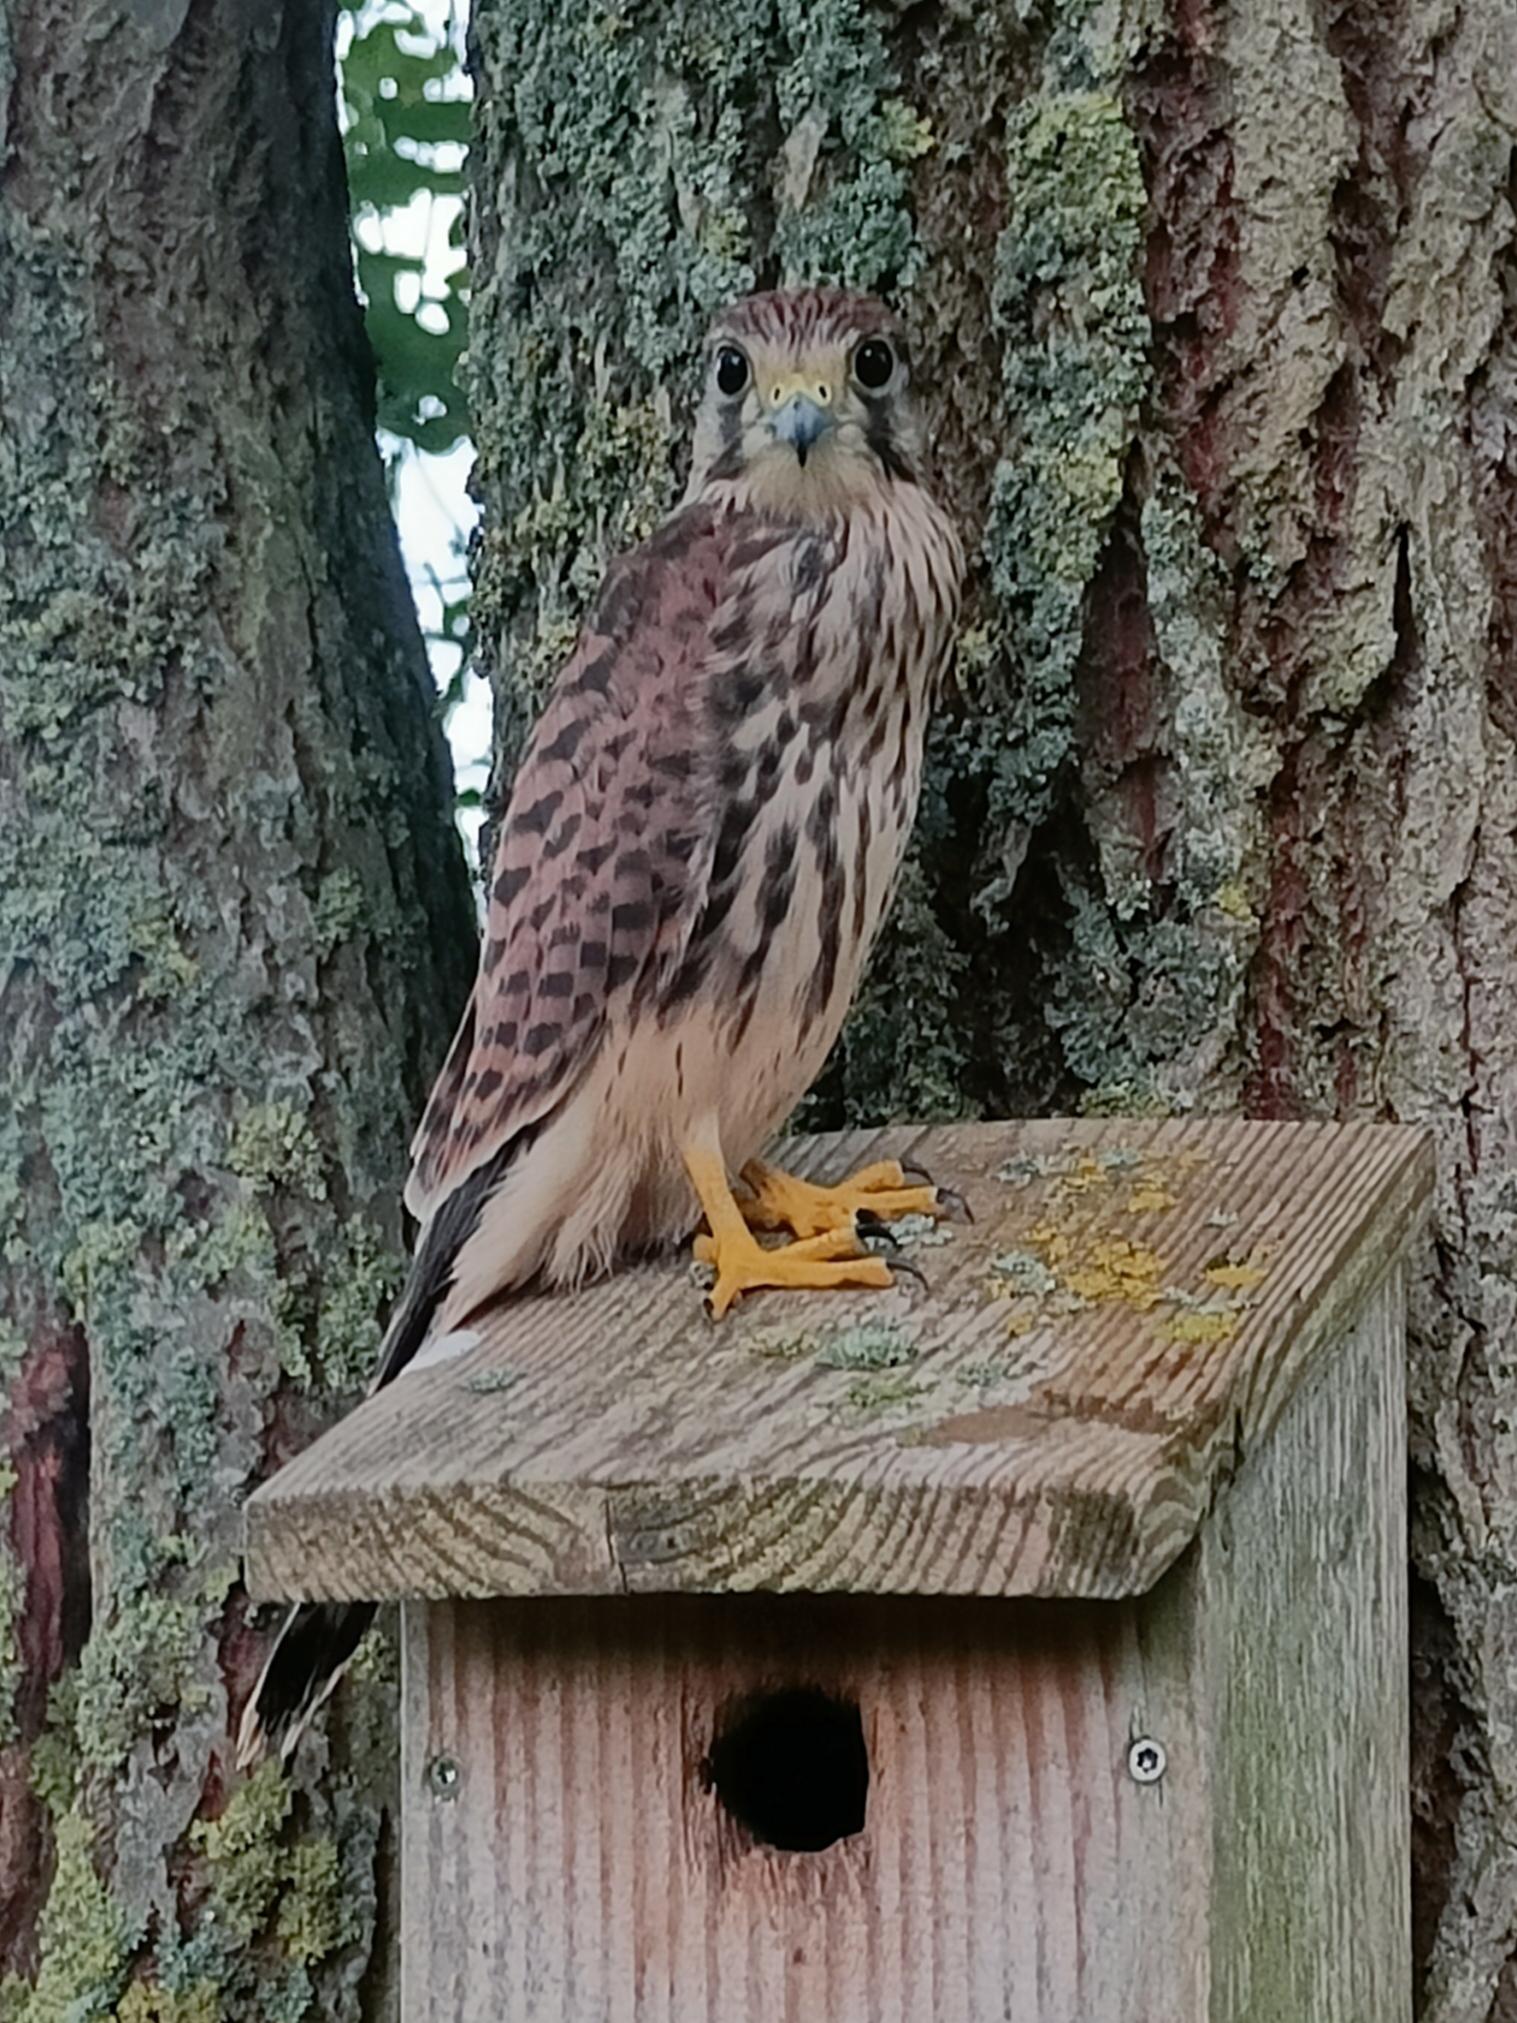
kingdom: Animalia
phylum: Chordata
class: Aves
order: Falconiformes
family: Falconidae
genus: Falco
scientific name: Falco tinnunculus
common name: Tårnfalk
